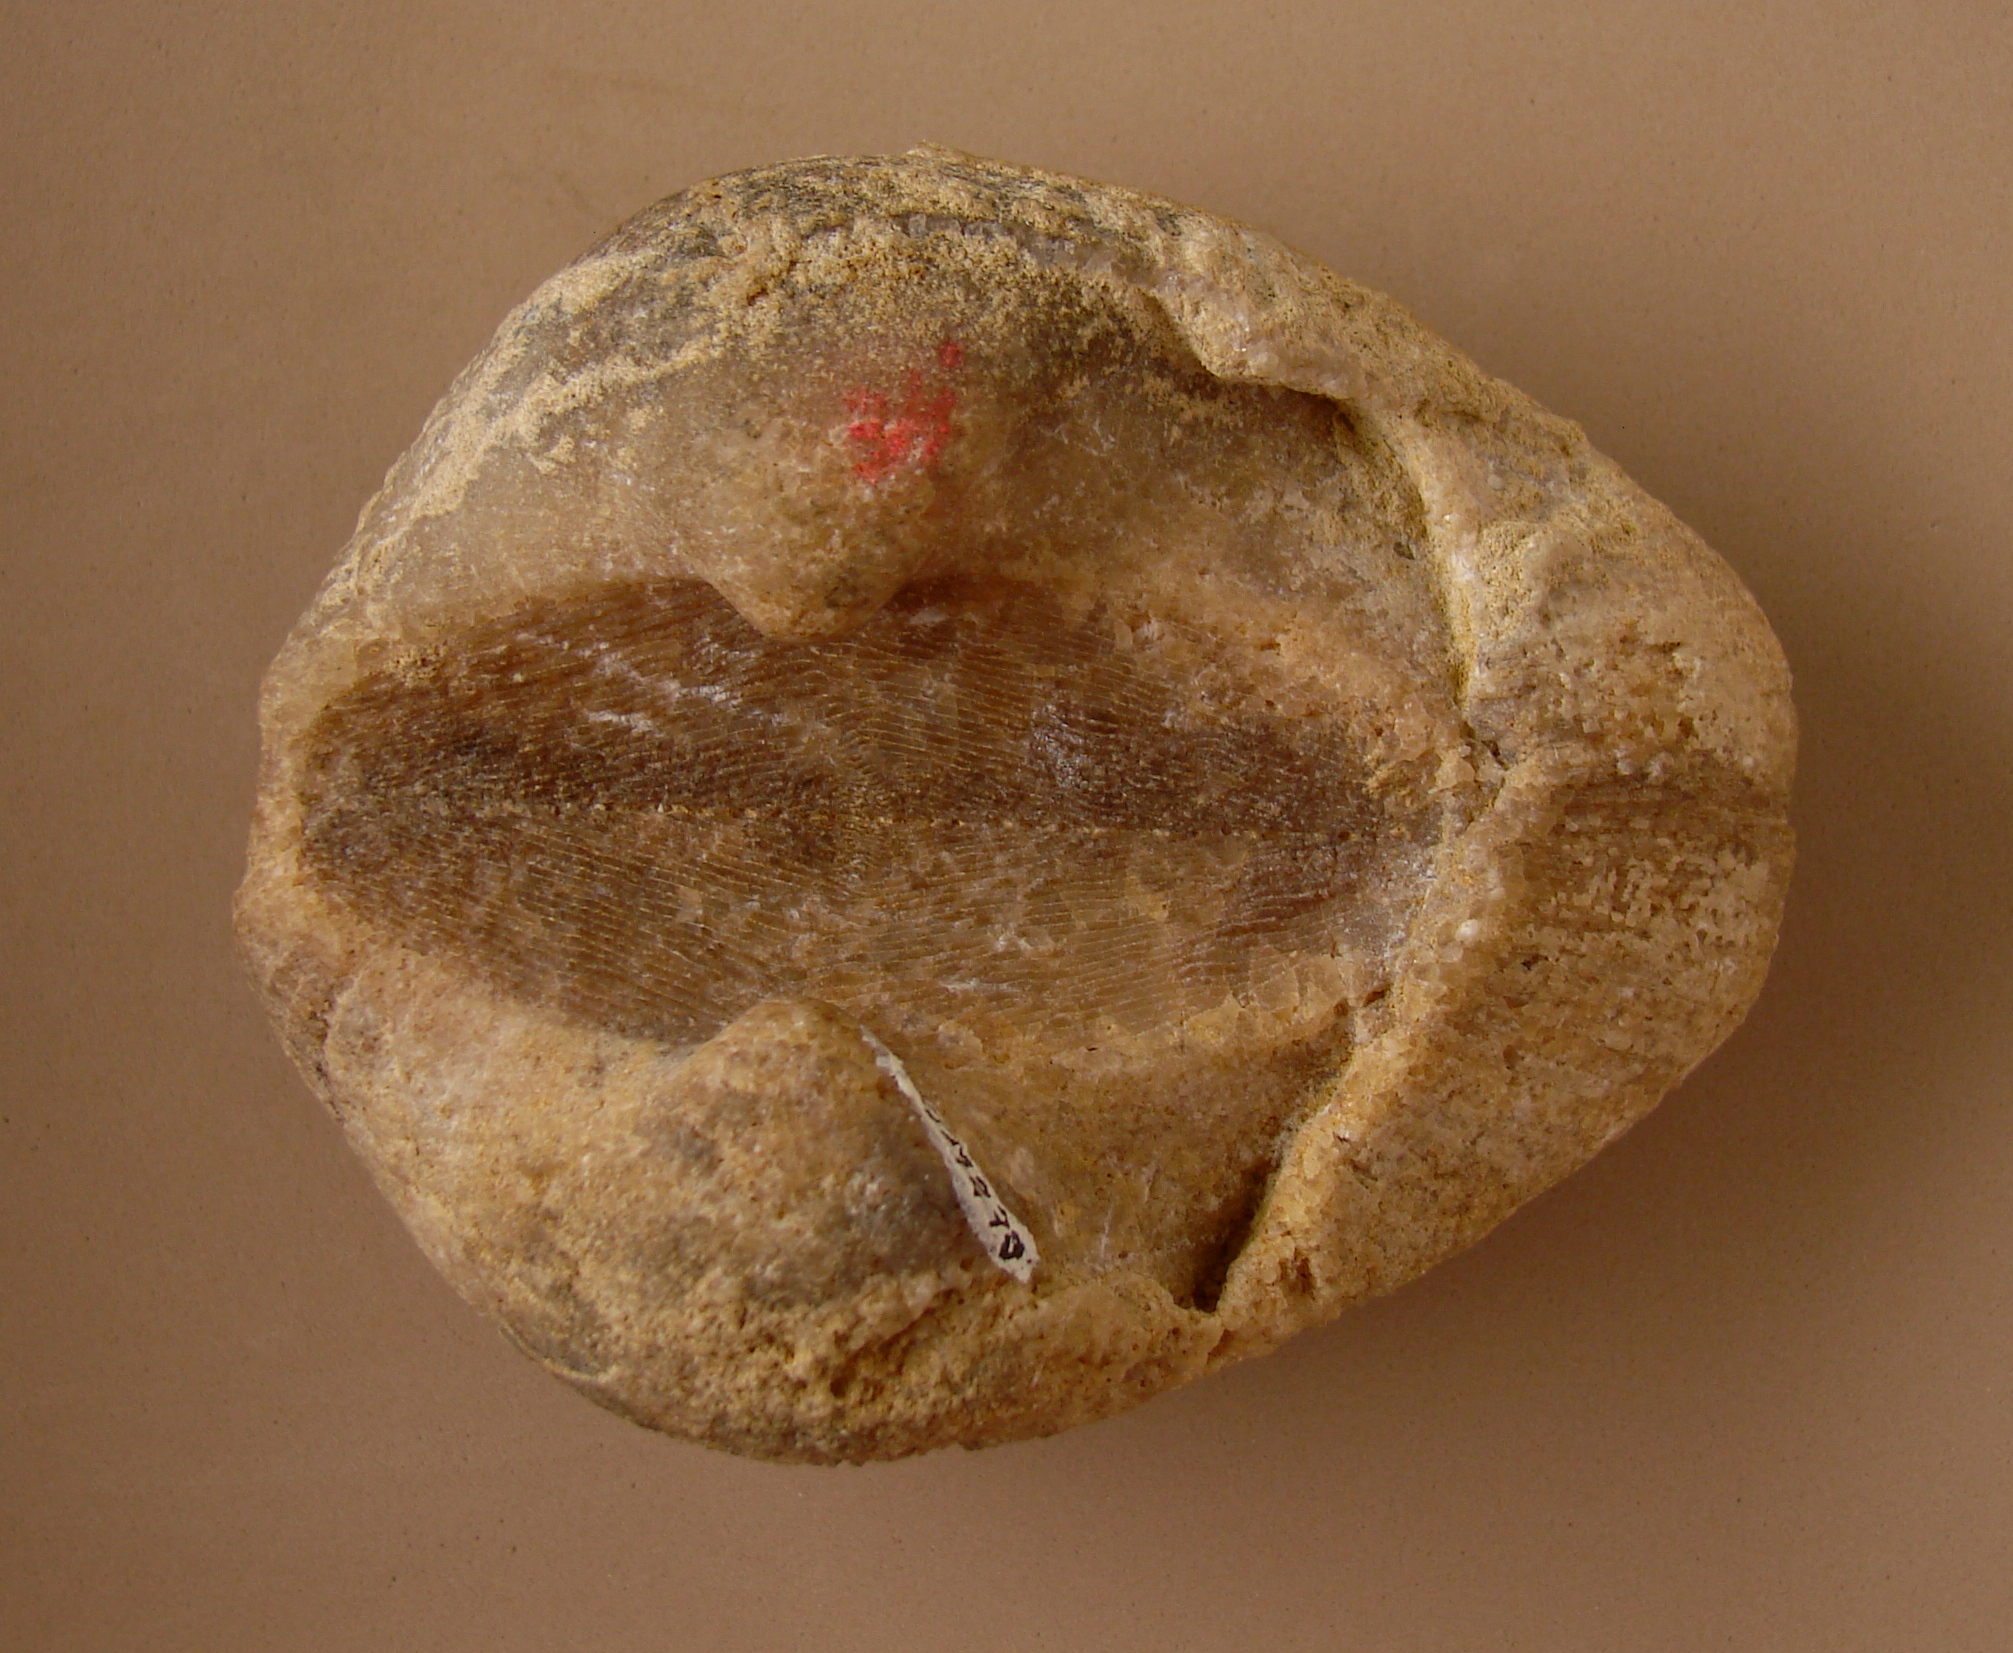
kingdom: Animalia
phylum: Mollusca
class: Bivalvia
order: Arcida
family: Cucullaeidae
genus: Idonearca
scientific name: Idonearca
